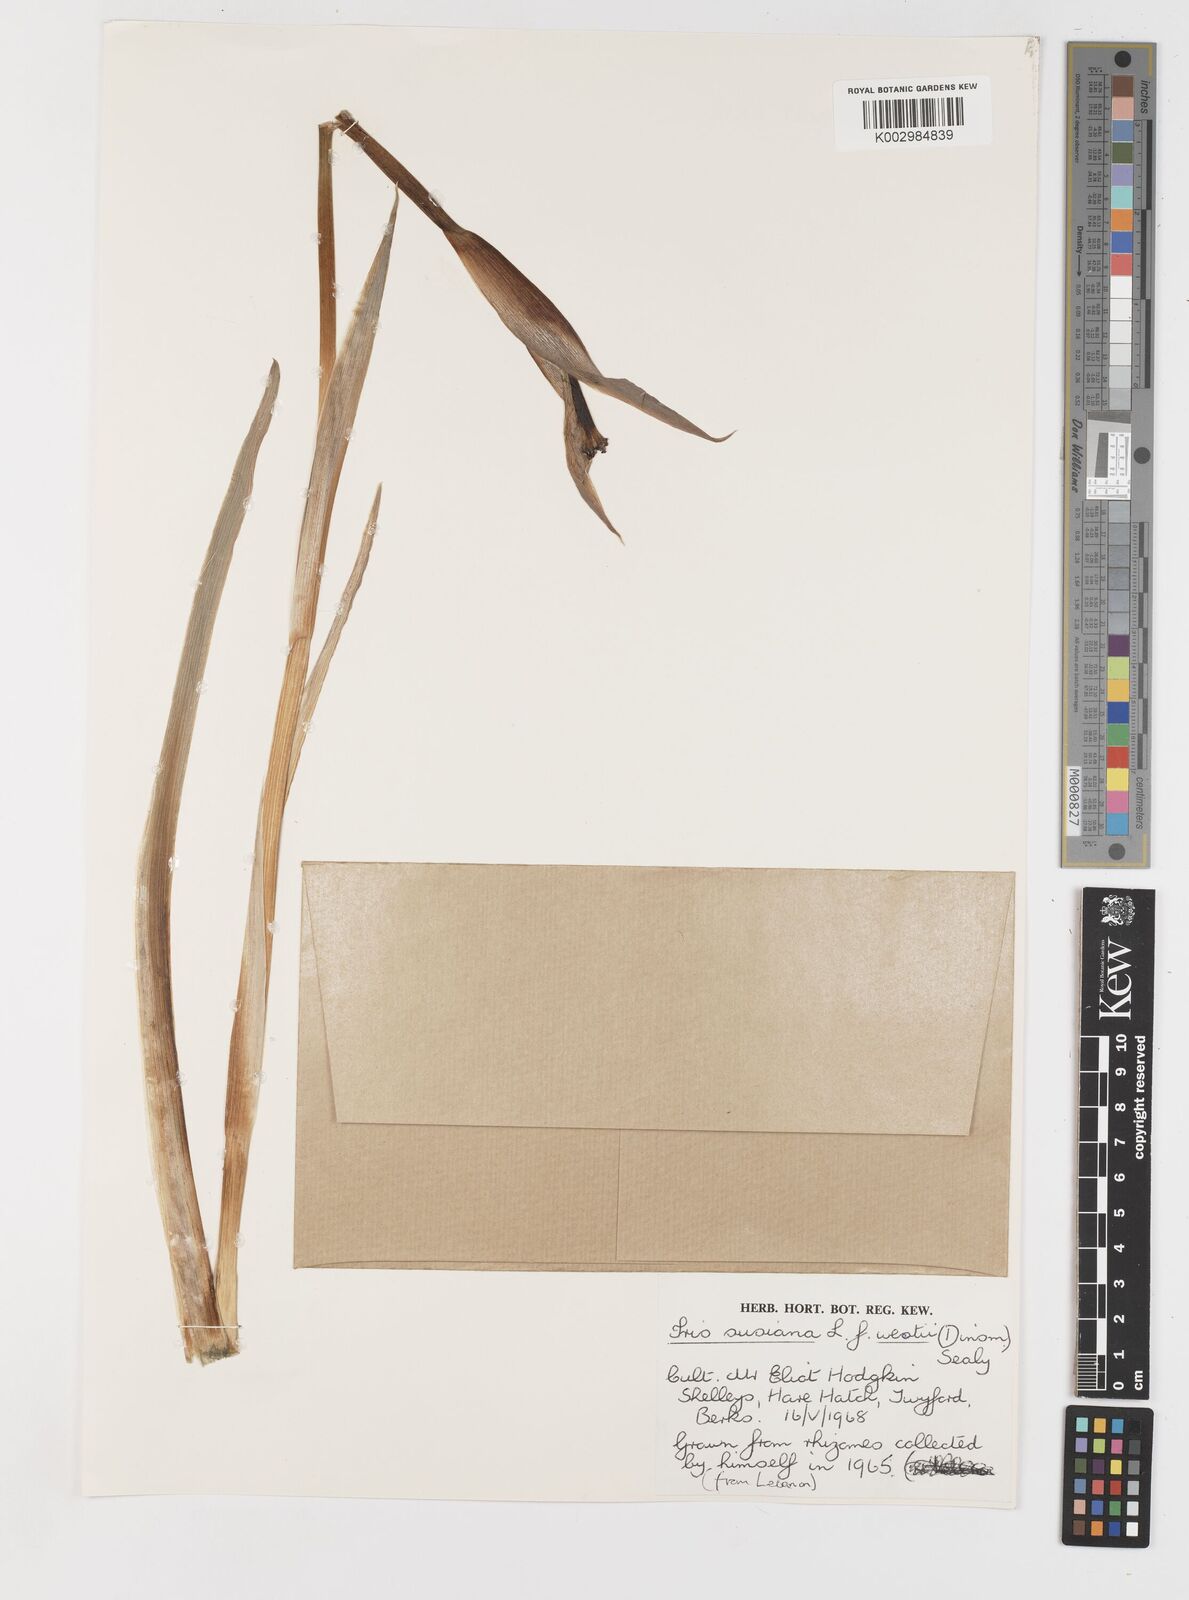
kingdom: Plantae
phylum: Tracheophyta
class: Liliopsida
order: Asparagales
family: Iridaceae
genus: Iris
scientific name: Iris susiana
